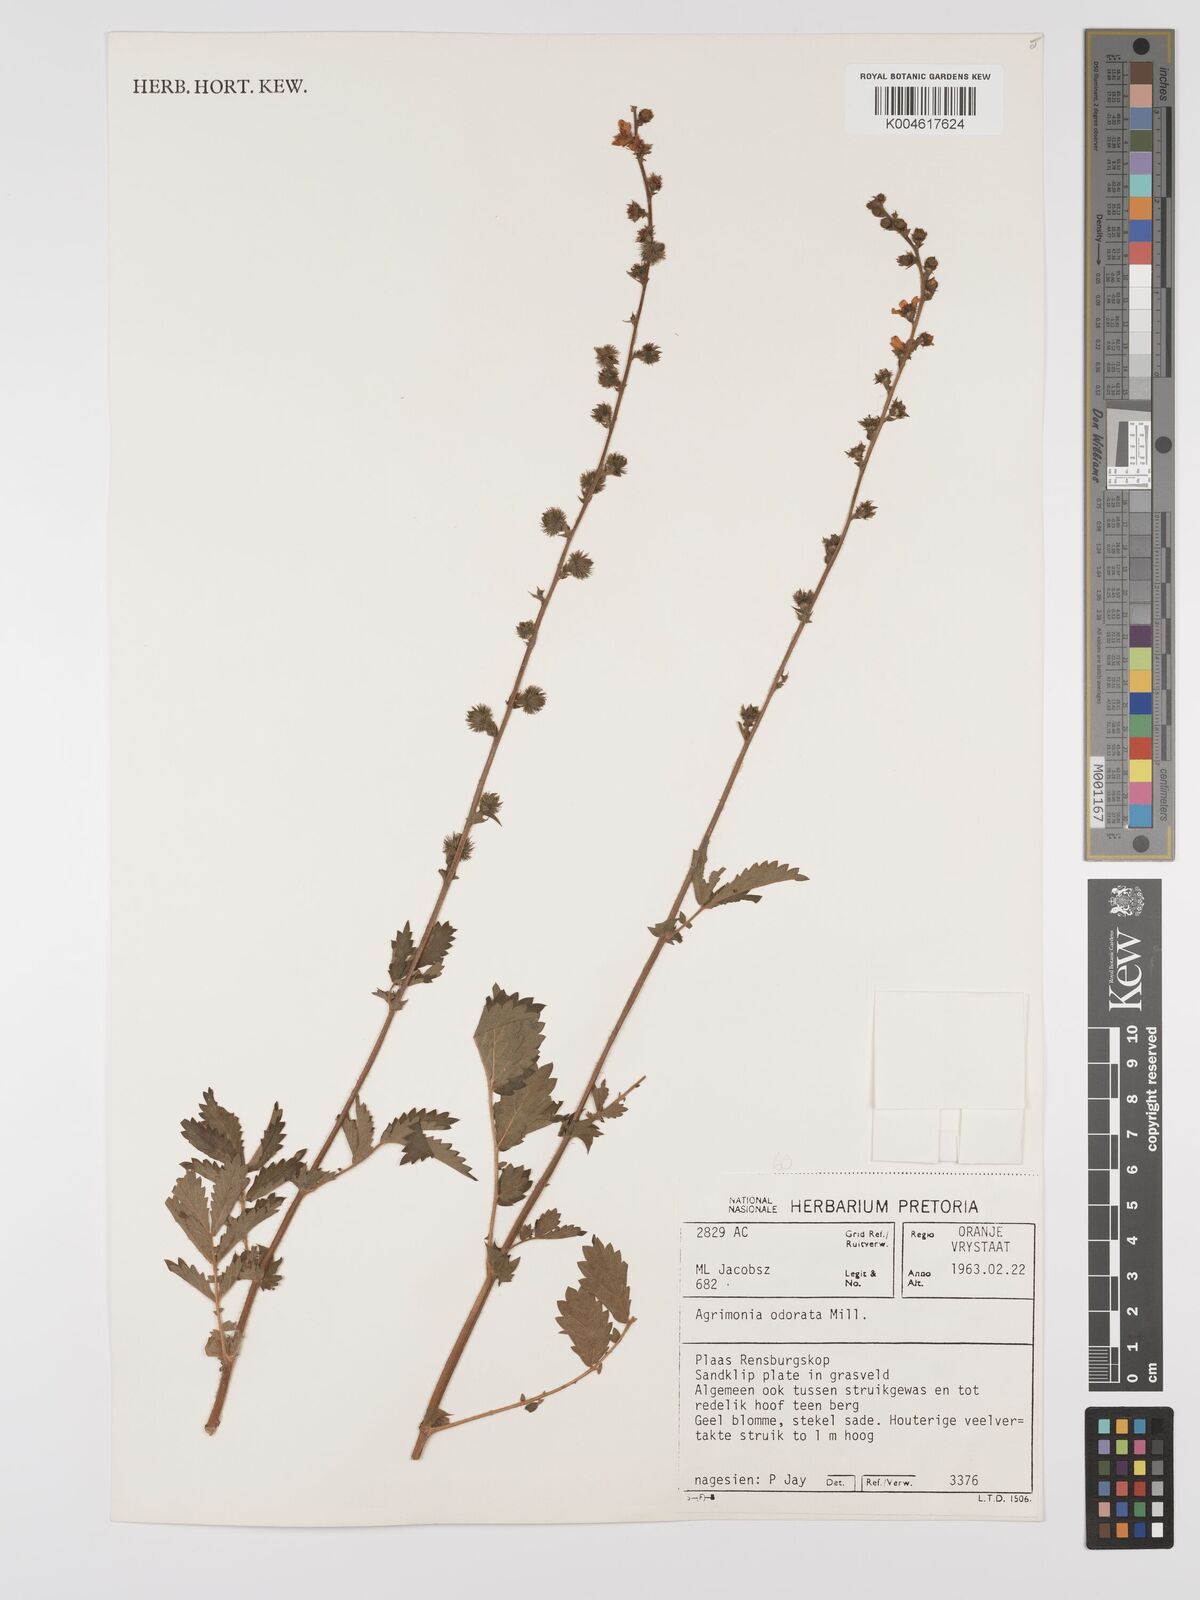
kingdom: Plantae
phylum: Tracheophyta
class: Magnoliopsida
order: Rosales
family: Rosaceae
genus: Agrimonia
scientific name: Agrimonia repens
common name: Creeping agrimony
